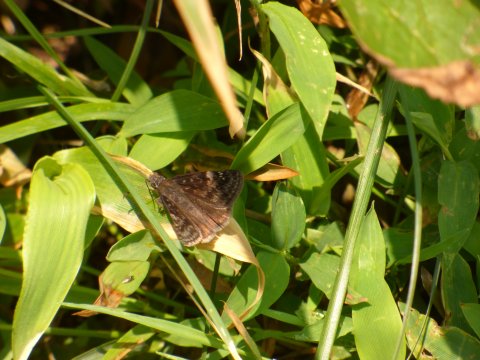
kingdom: Animalia
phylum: Arthropoda
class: Insecta
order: Lepidoptera
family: Hesperiidae
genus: Gesta
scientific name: Gesta
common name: Wild Indigo Duskywing
